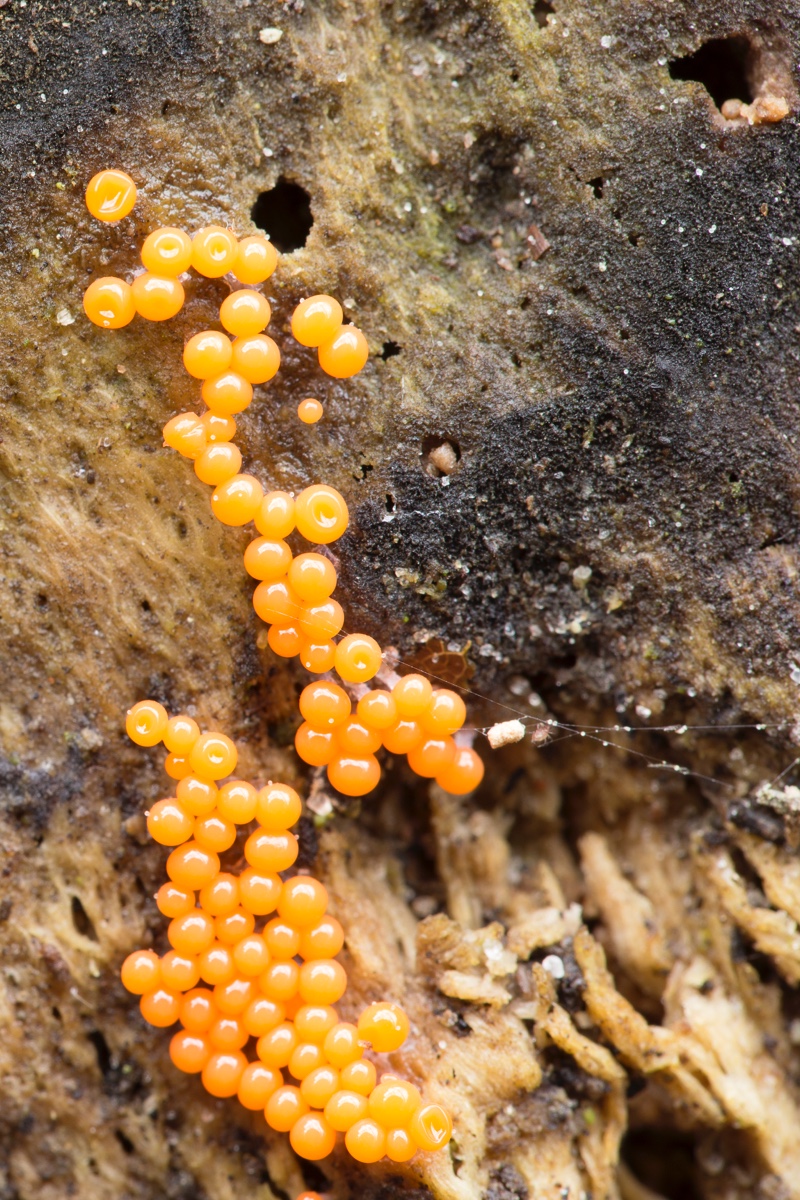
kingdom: Protozoa
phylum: Mycetozoa
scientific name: Mycetozoa
